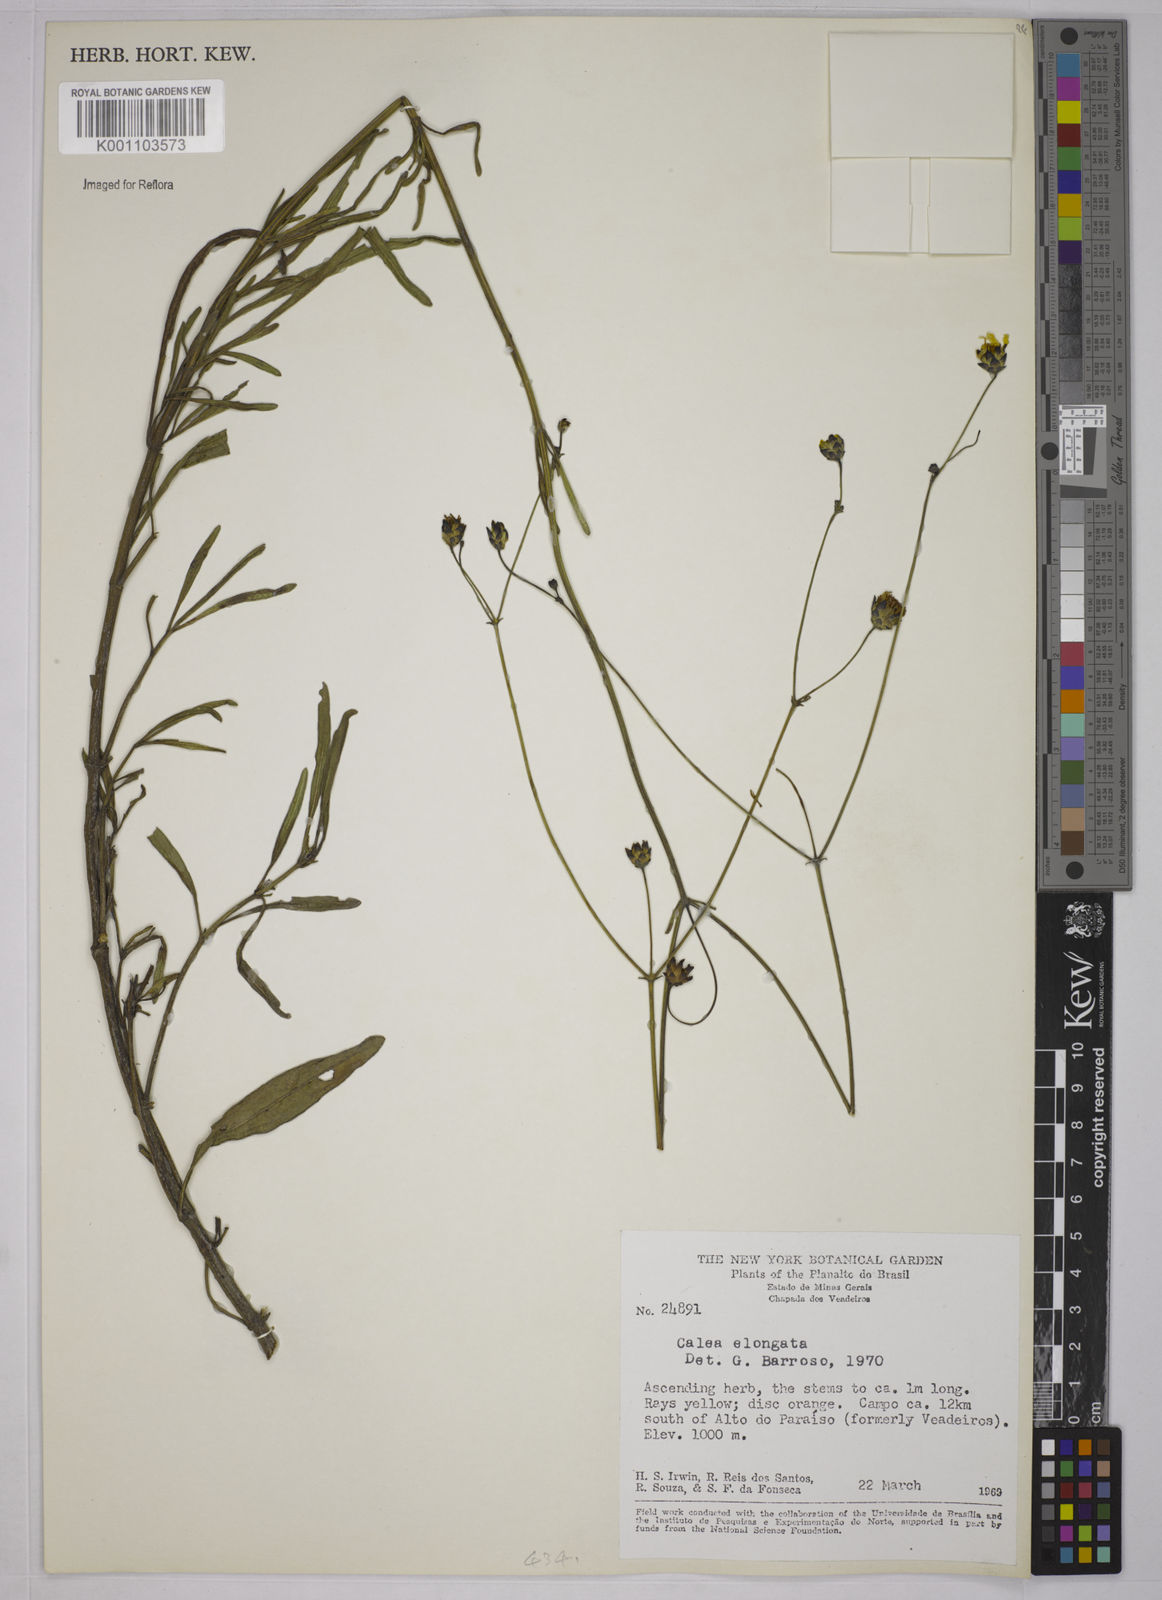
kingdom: Plantae
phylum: Tracheophyta
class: Magnoliopsida
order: Asterales
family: Asteraceae
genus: Calea
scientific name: Calea elongata
